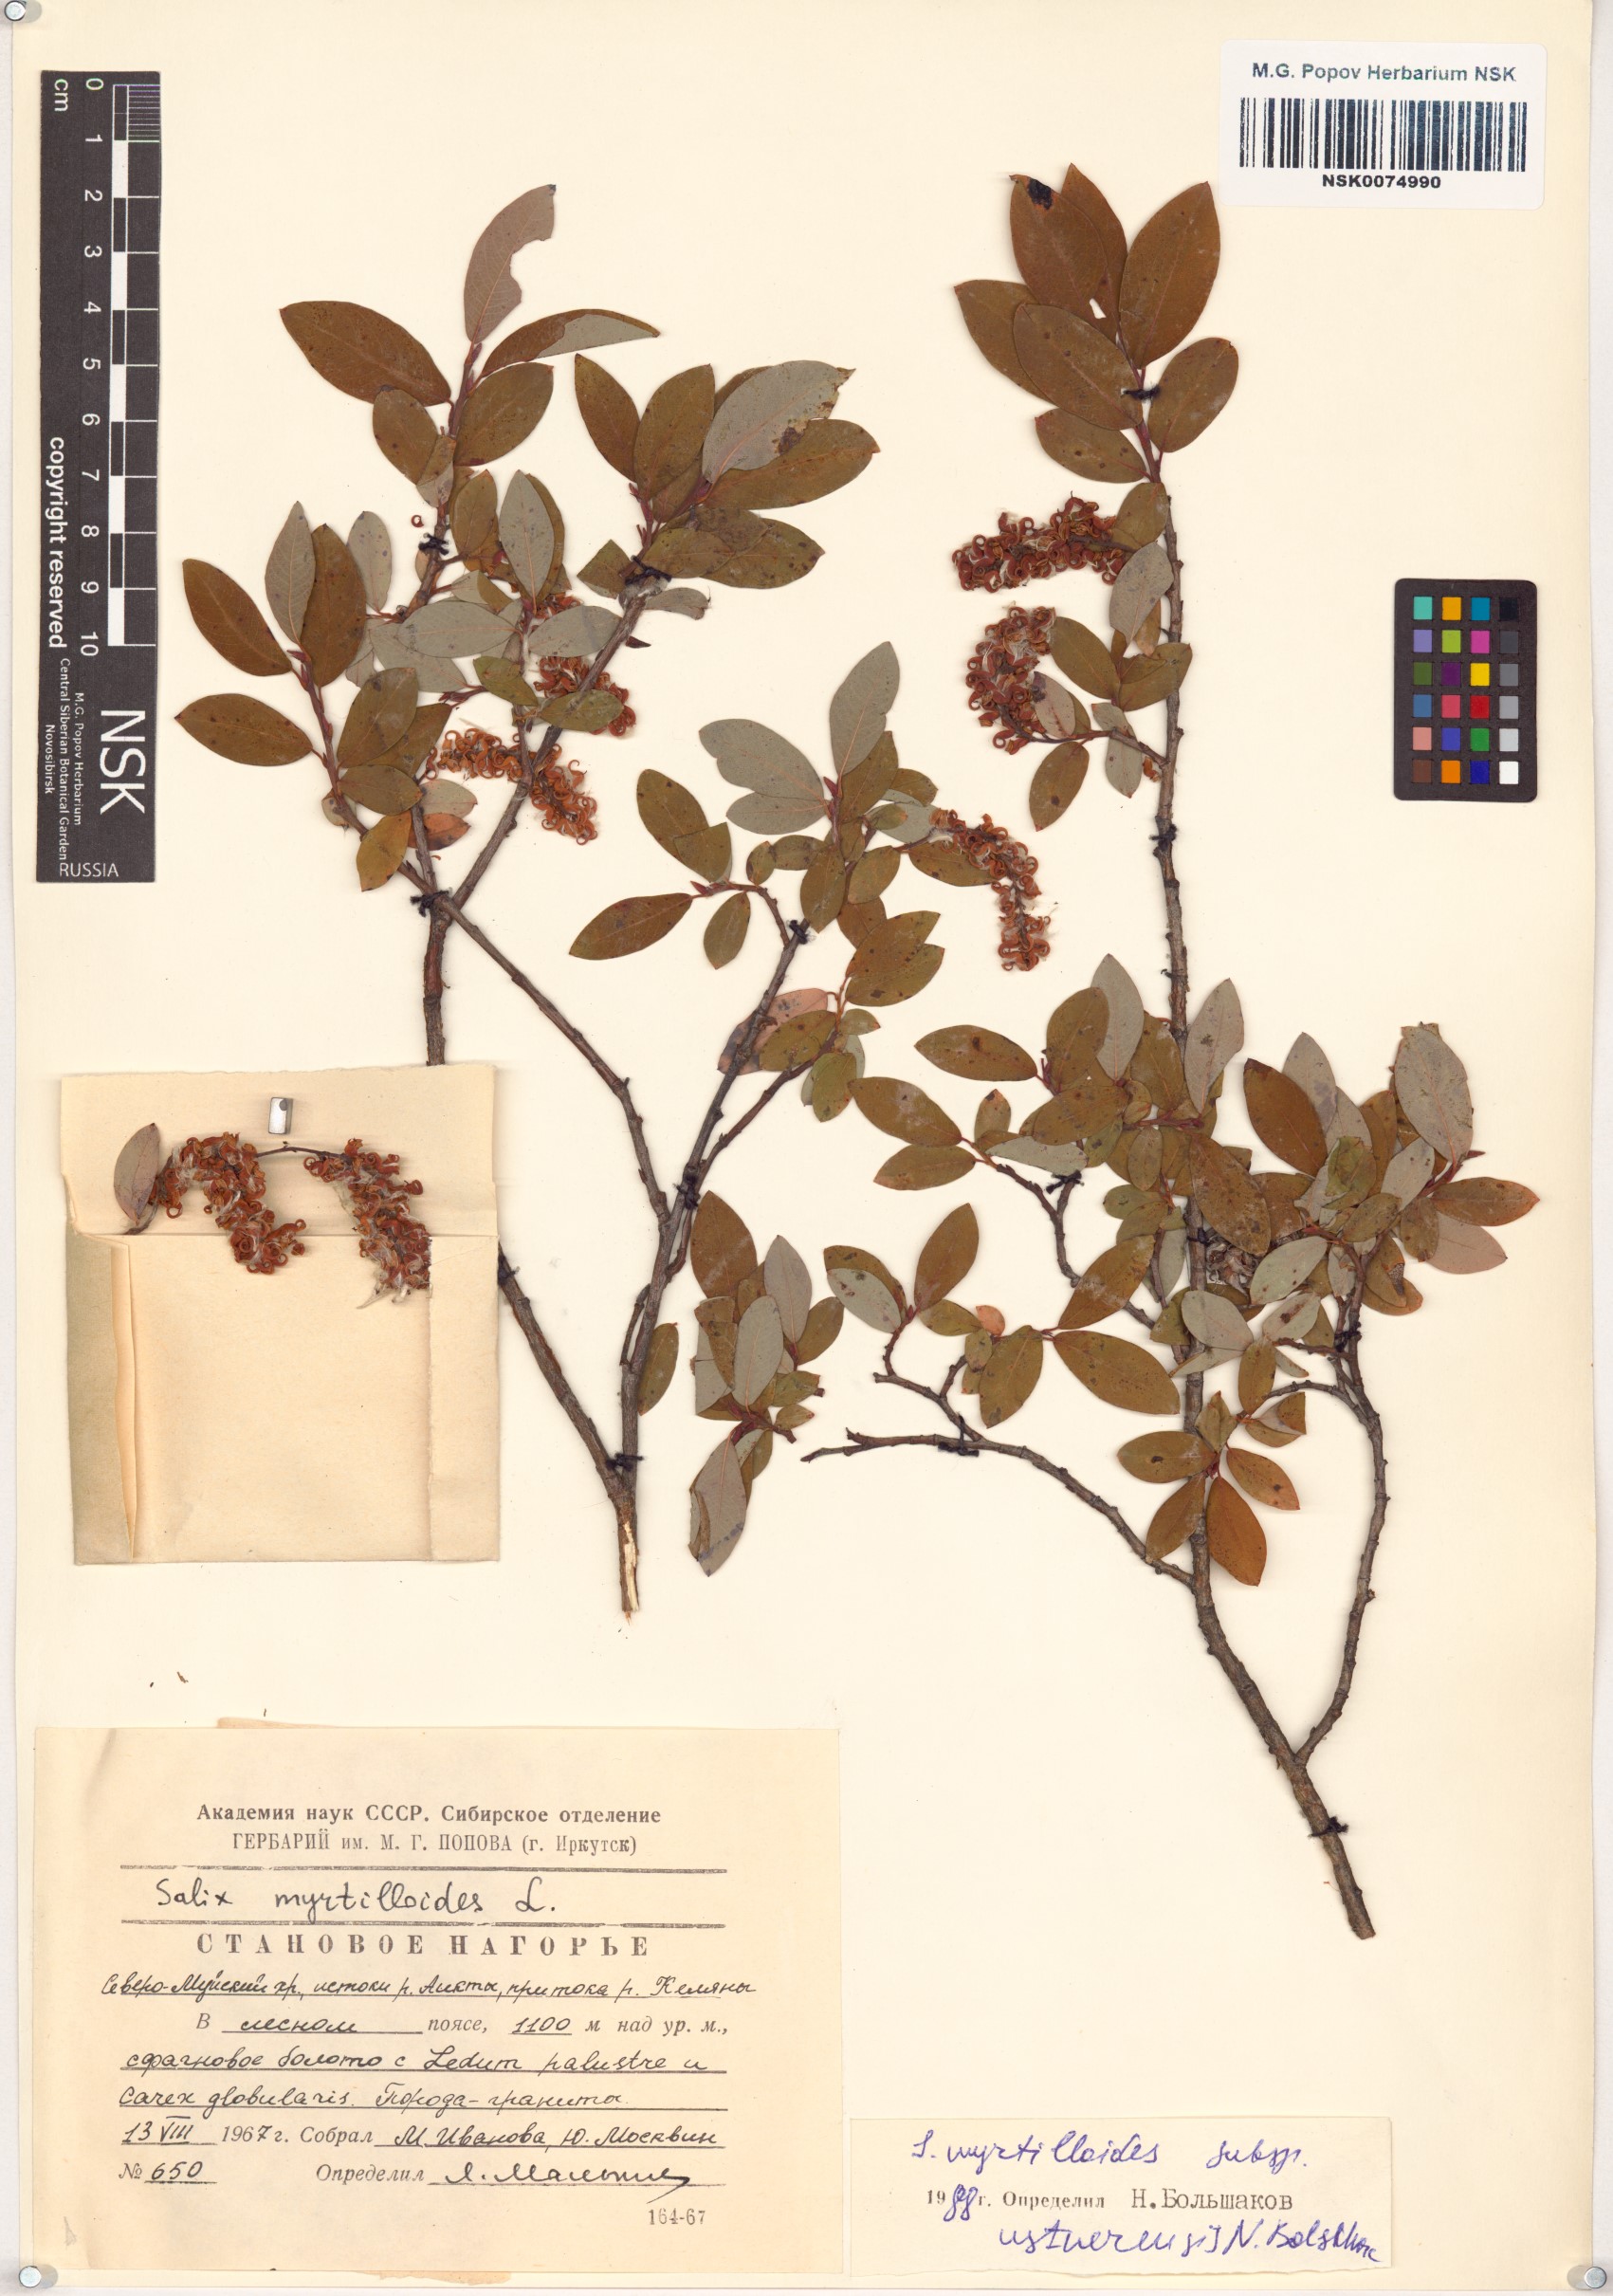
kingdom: Plantae
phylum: Tracheophyta
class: Magnoliopsida
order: Malpighiales
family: Salicaceae
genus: Salix
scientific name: Salix ustnerensis
